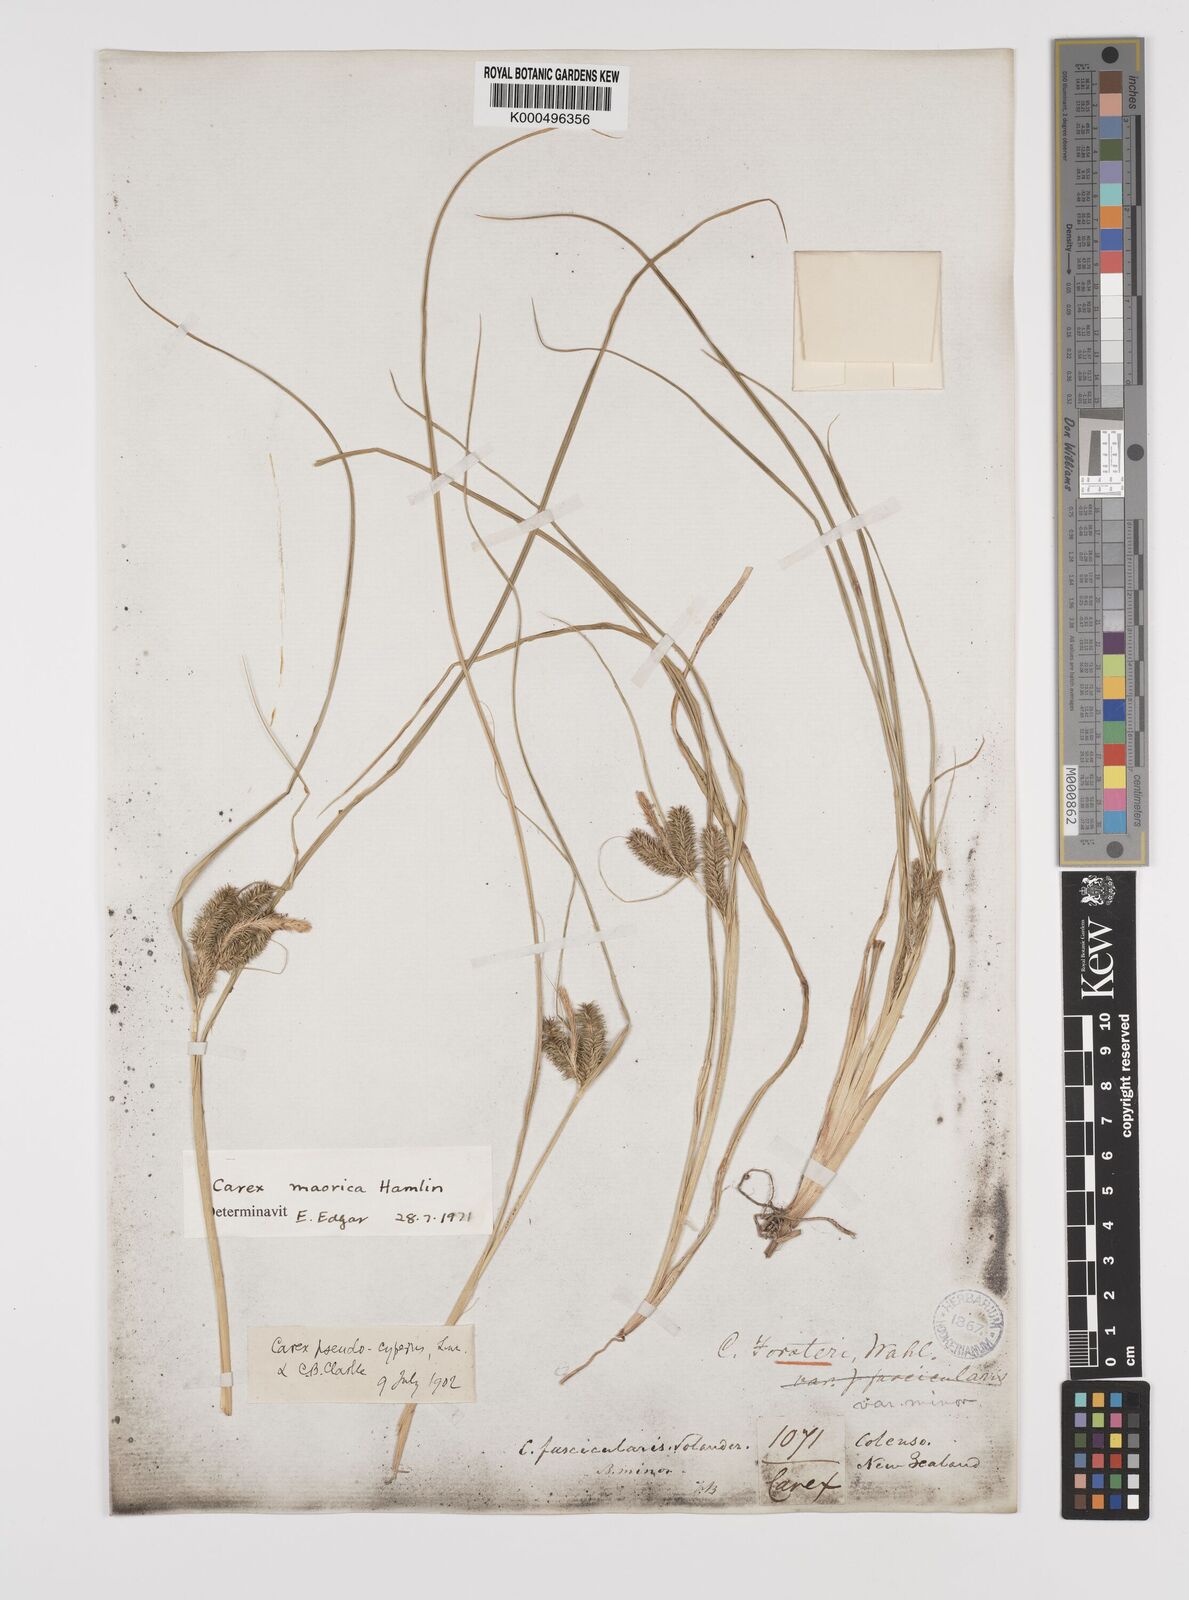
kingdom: Plantae
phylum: Tracheophyta
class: Liliopsida
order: Poales
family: Cyperaceae
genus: Carex
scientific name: Carex maorica
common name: Maori sedge
